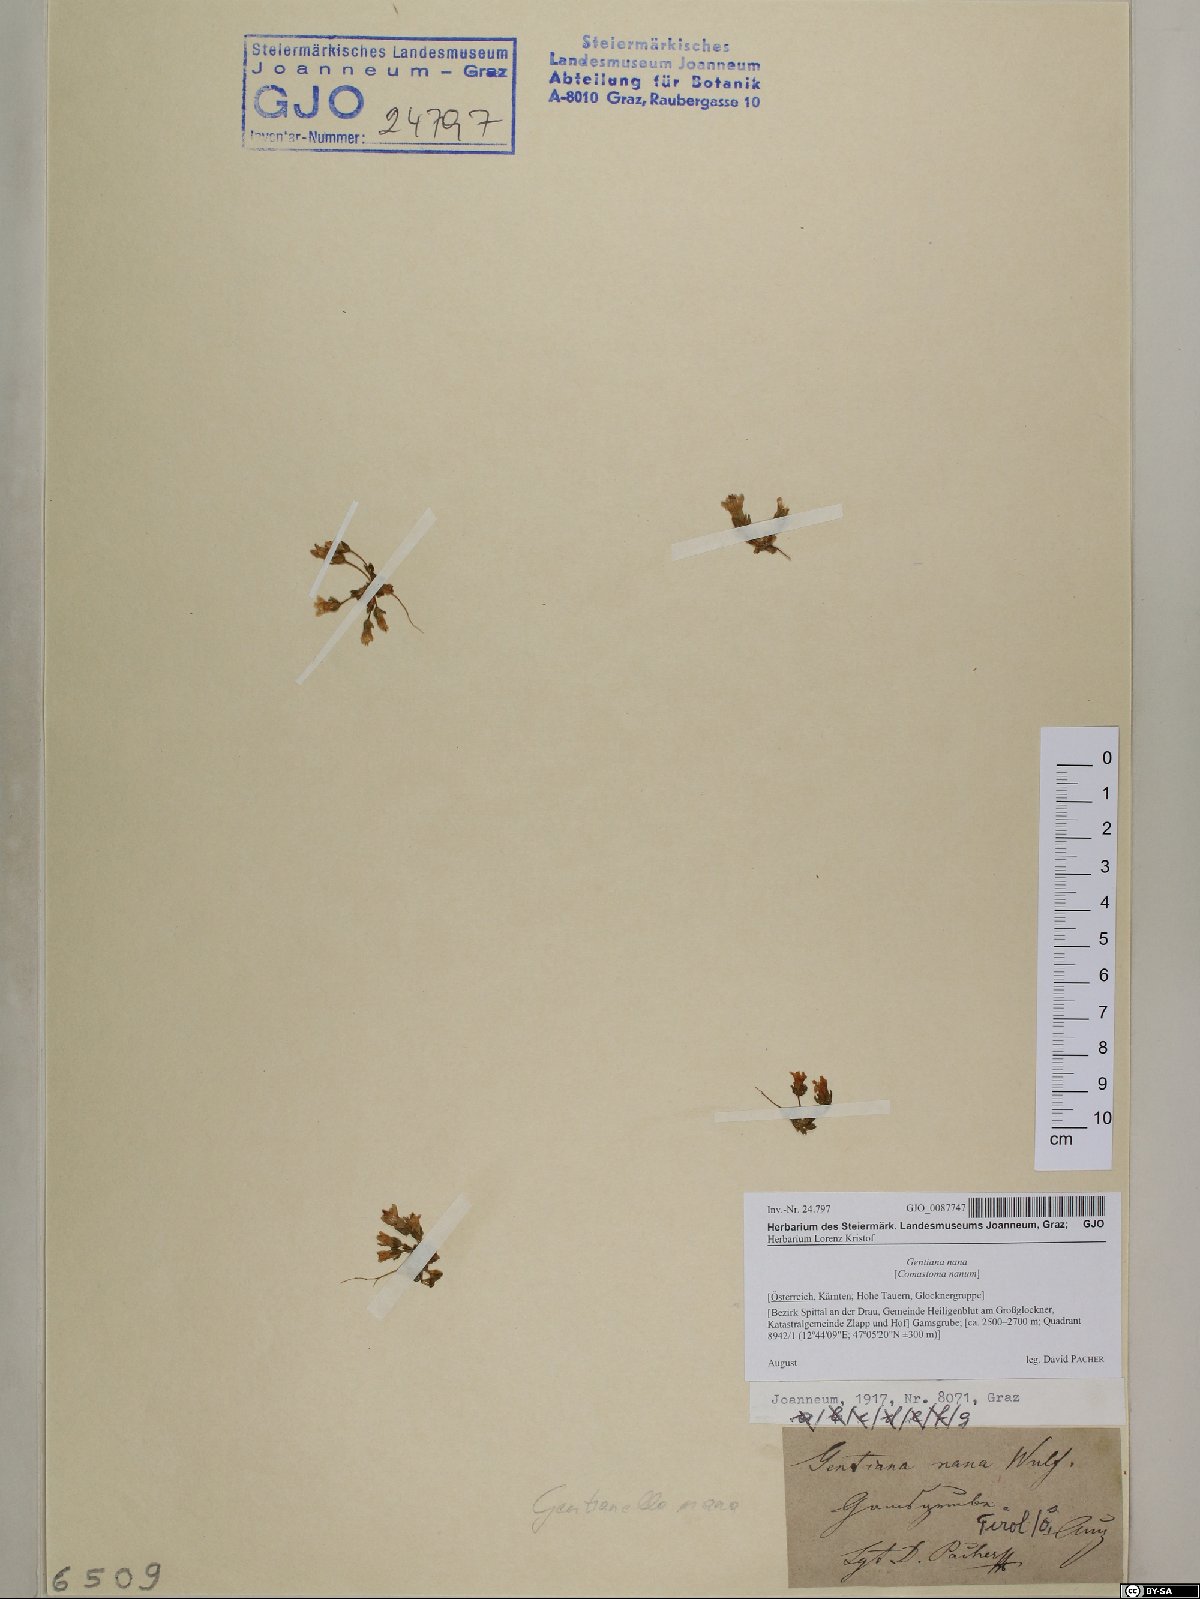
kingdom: Plantae
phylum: Tracheophyta
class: Magnoliopsida
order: Gentianales
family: Gentianaceae
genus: Comastoma
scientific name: Comastoma nanum
